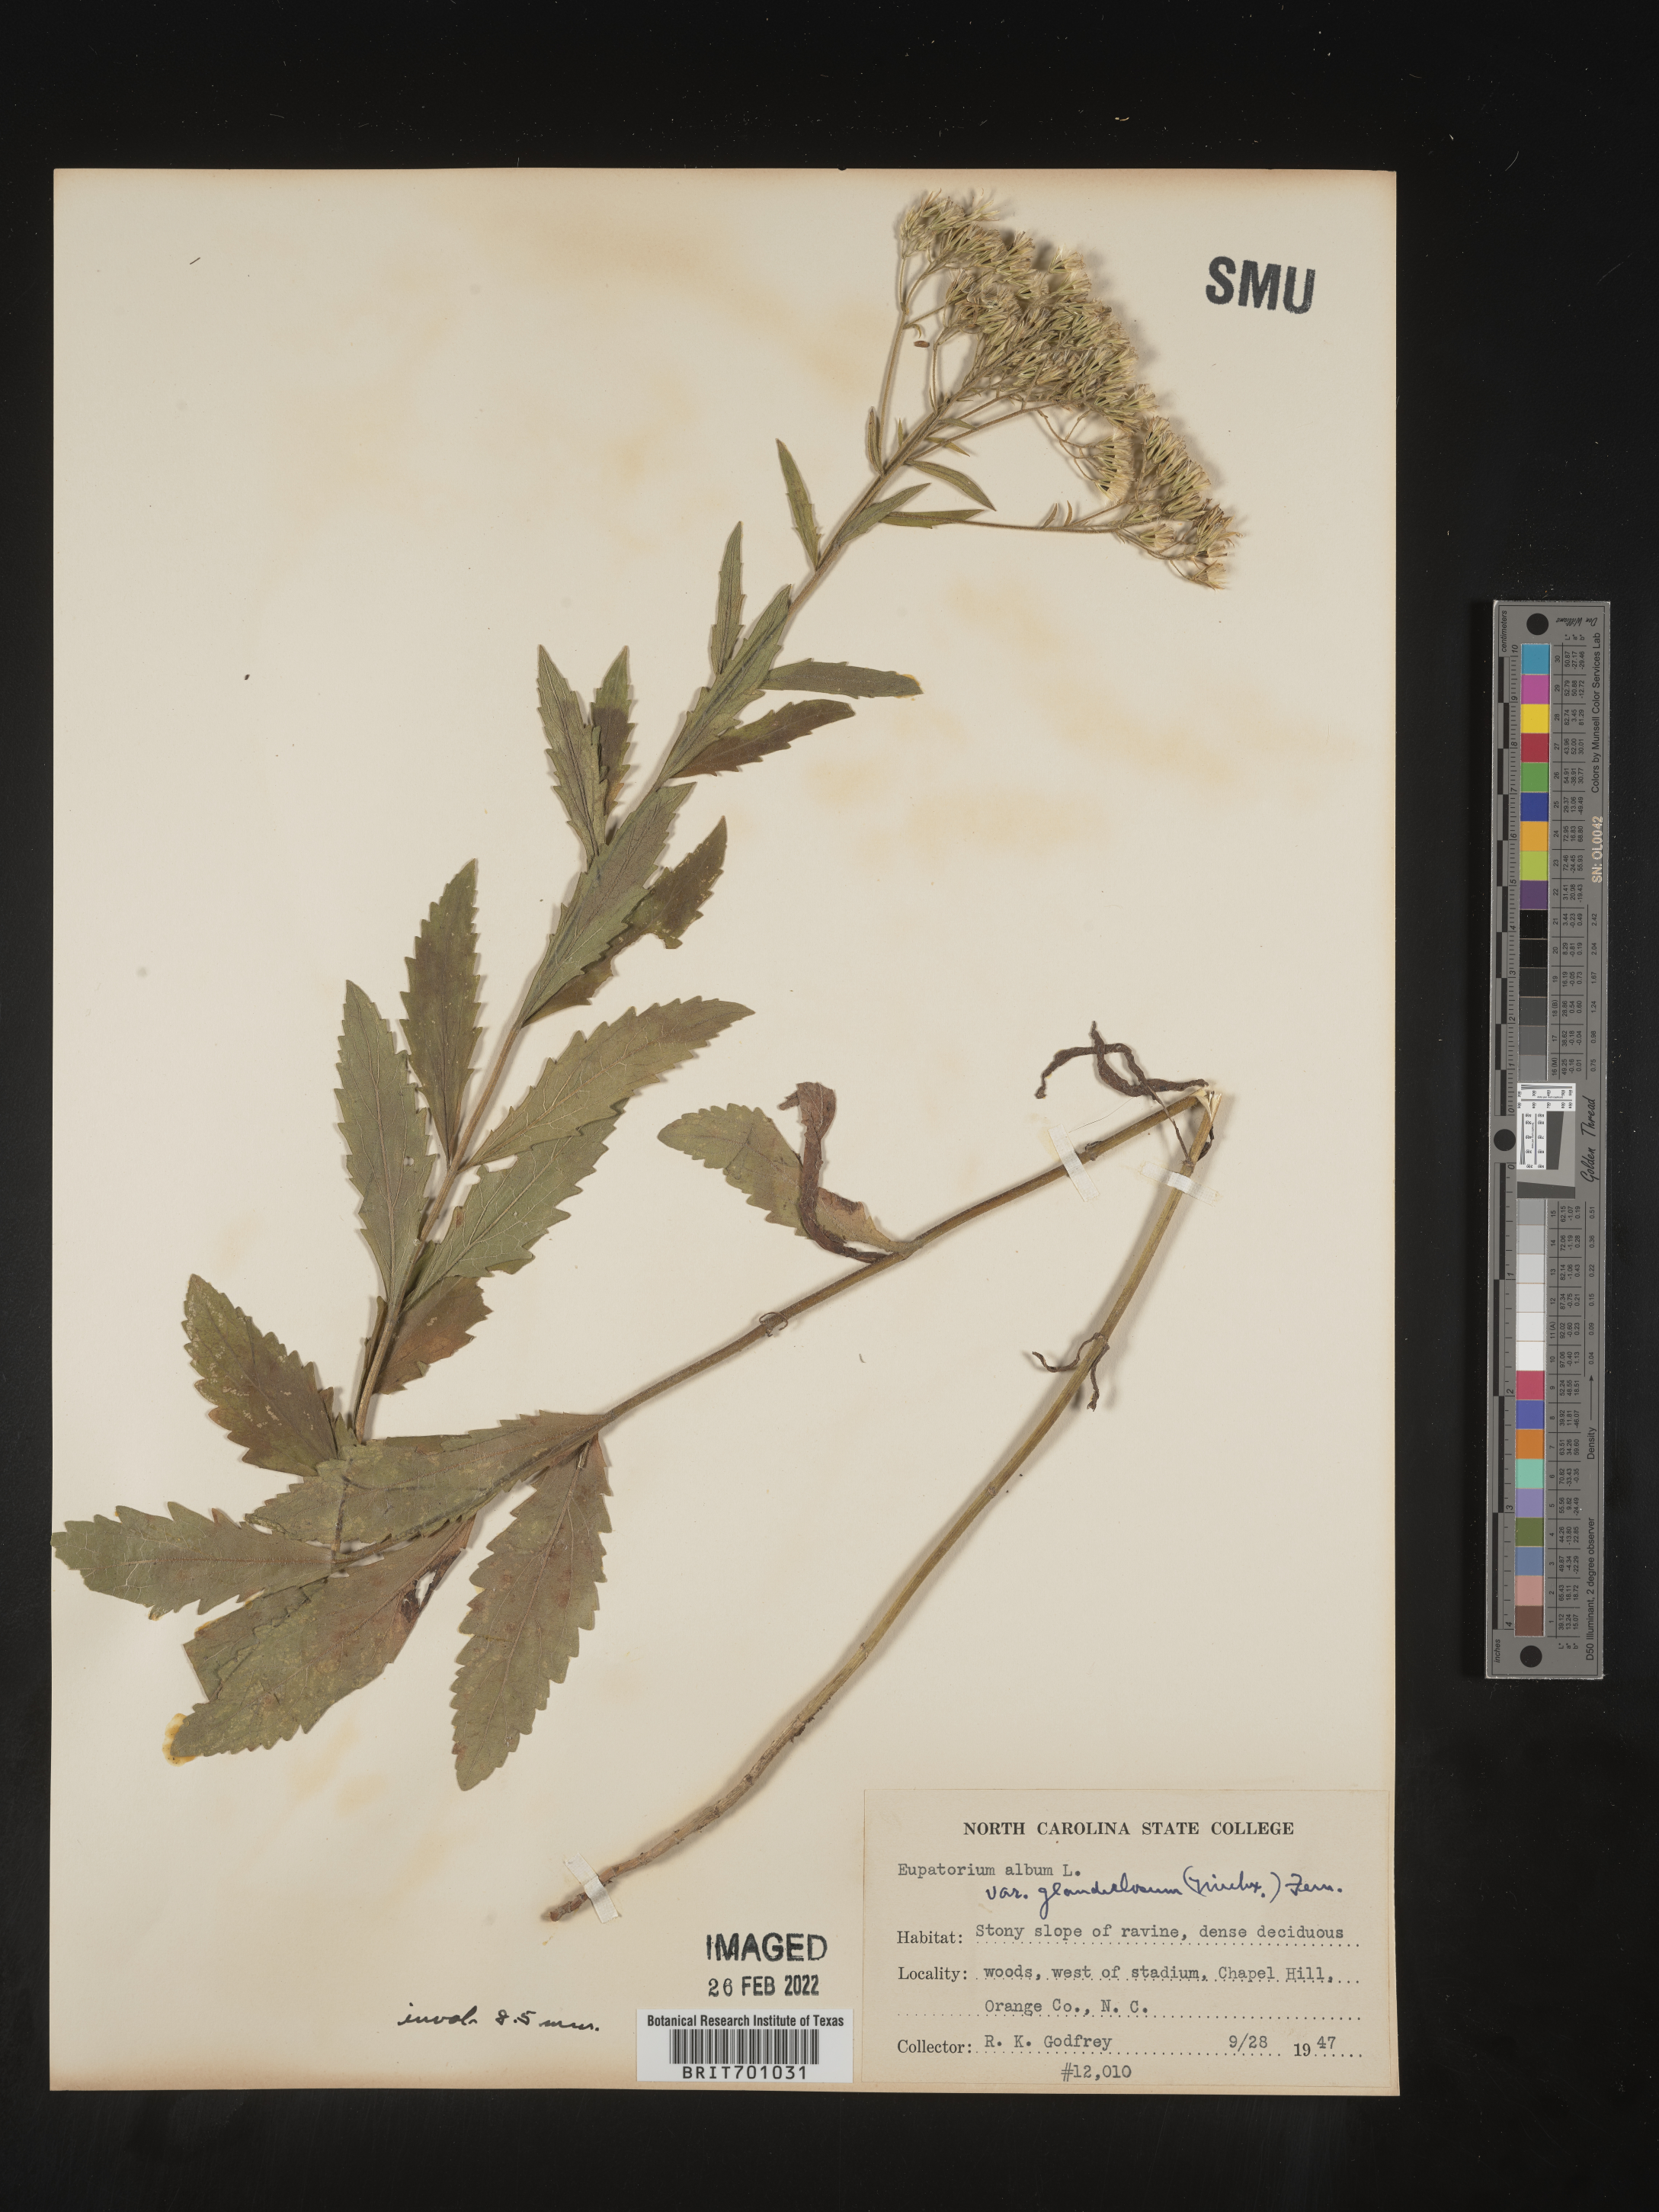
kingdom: Plantae
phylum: Tracheophyta
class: Magnoliopsida
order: Asterales
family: Asteraceae
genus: Eupatorium
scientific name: Eupatorium album
